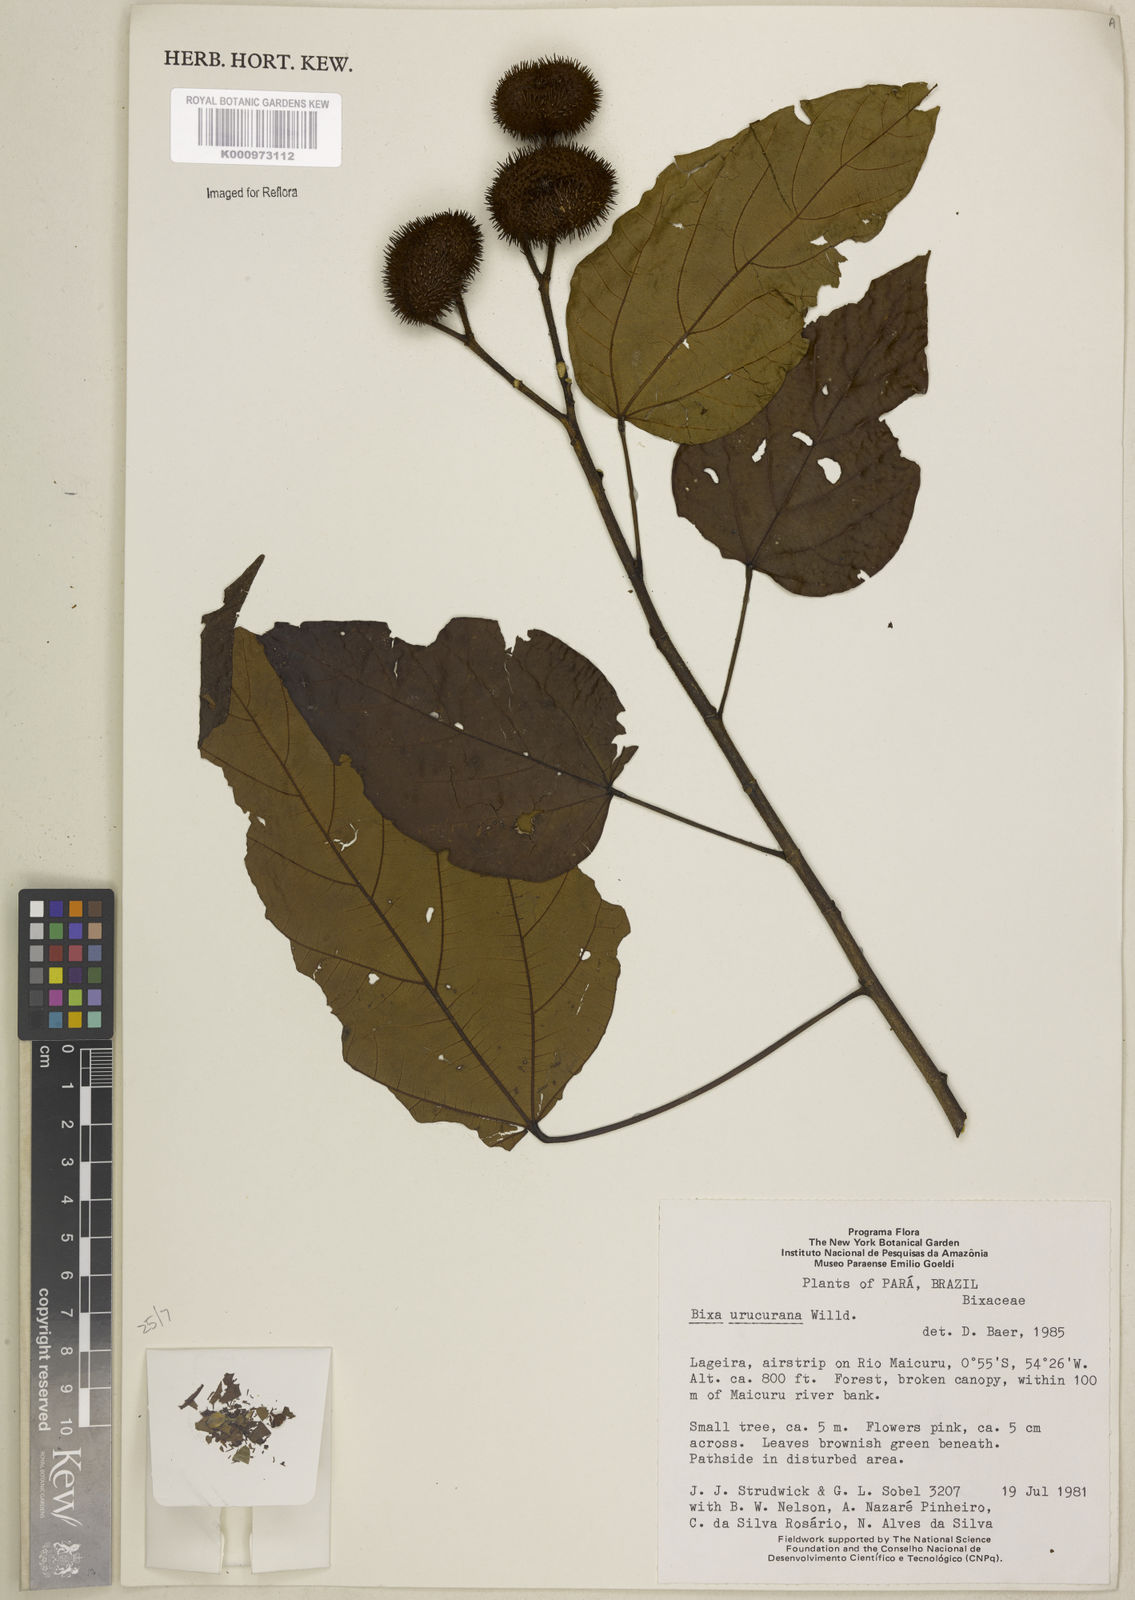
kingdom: Plantae
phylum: Tracheophyta
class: Magnoliopsida
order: Malvales
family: Bixaceae
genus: Bixa
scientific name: Bixa urucurana
